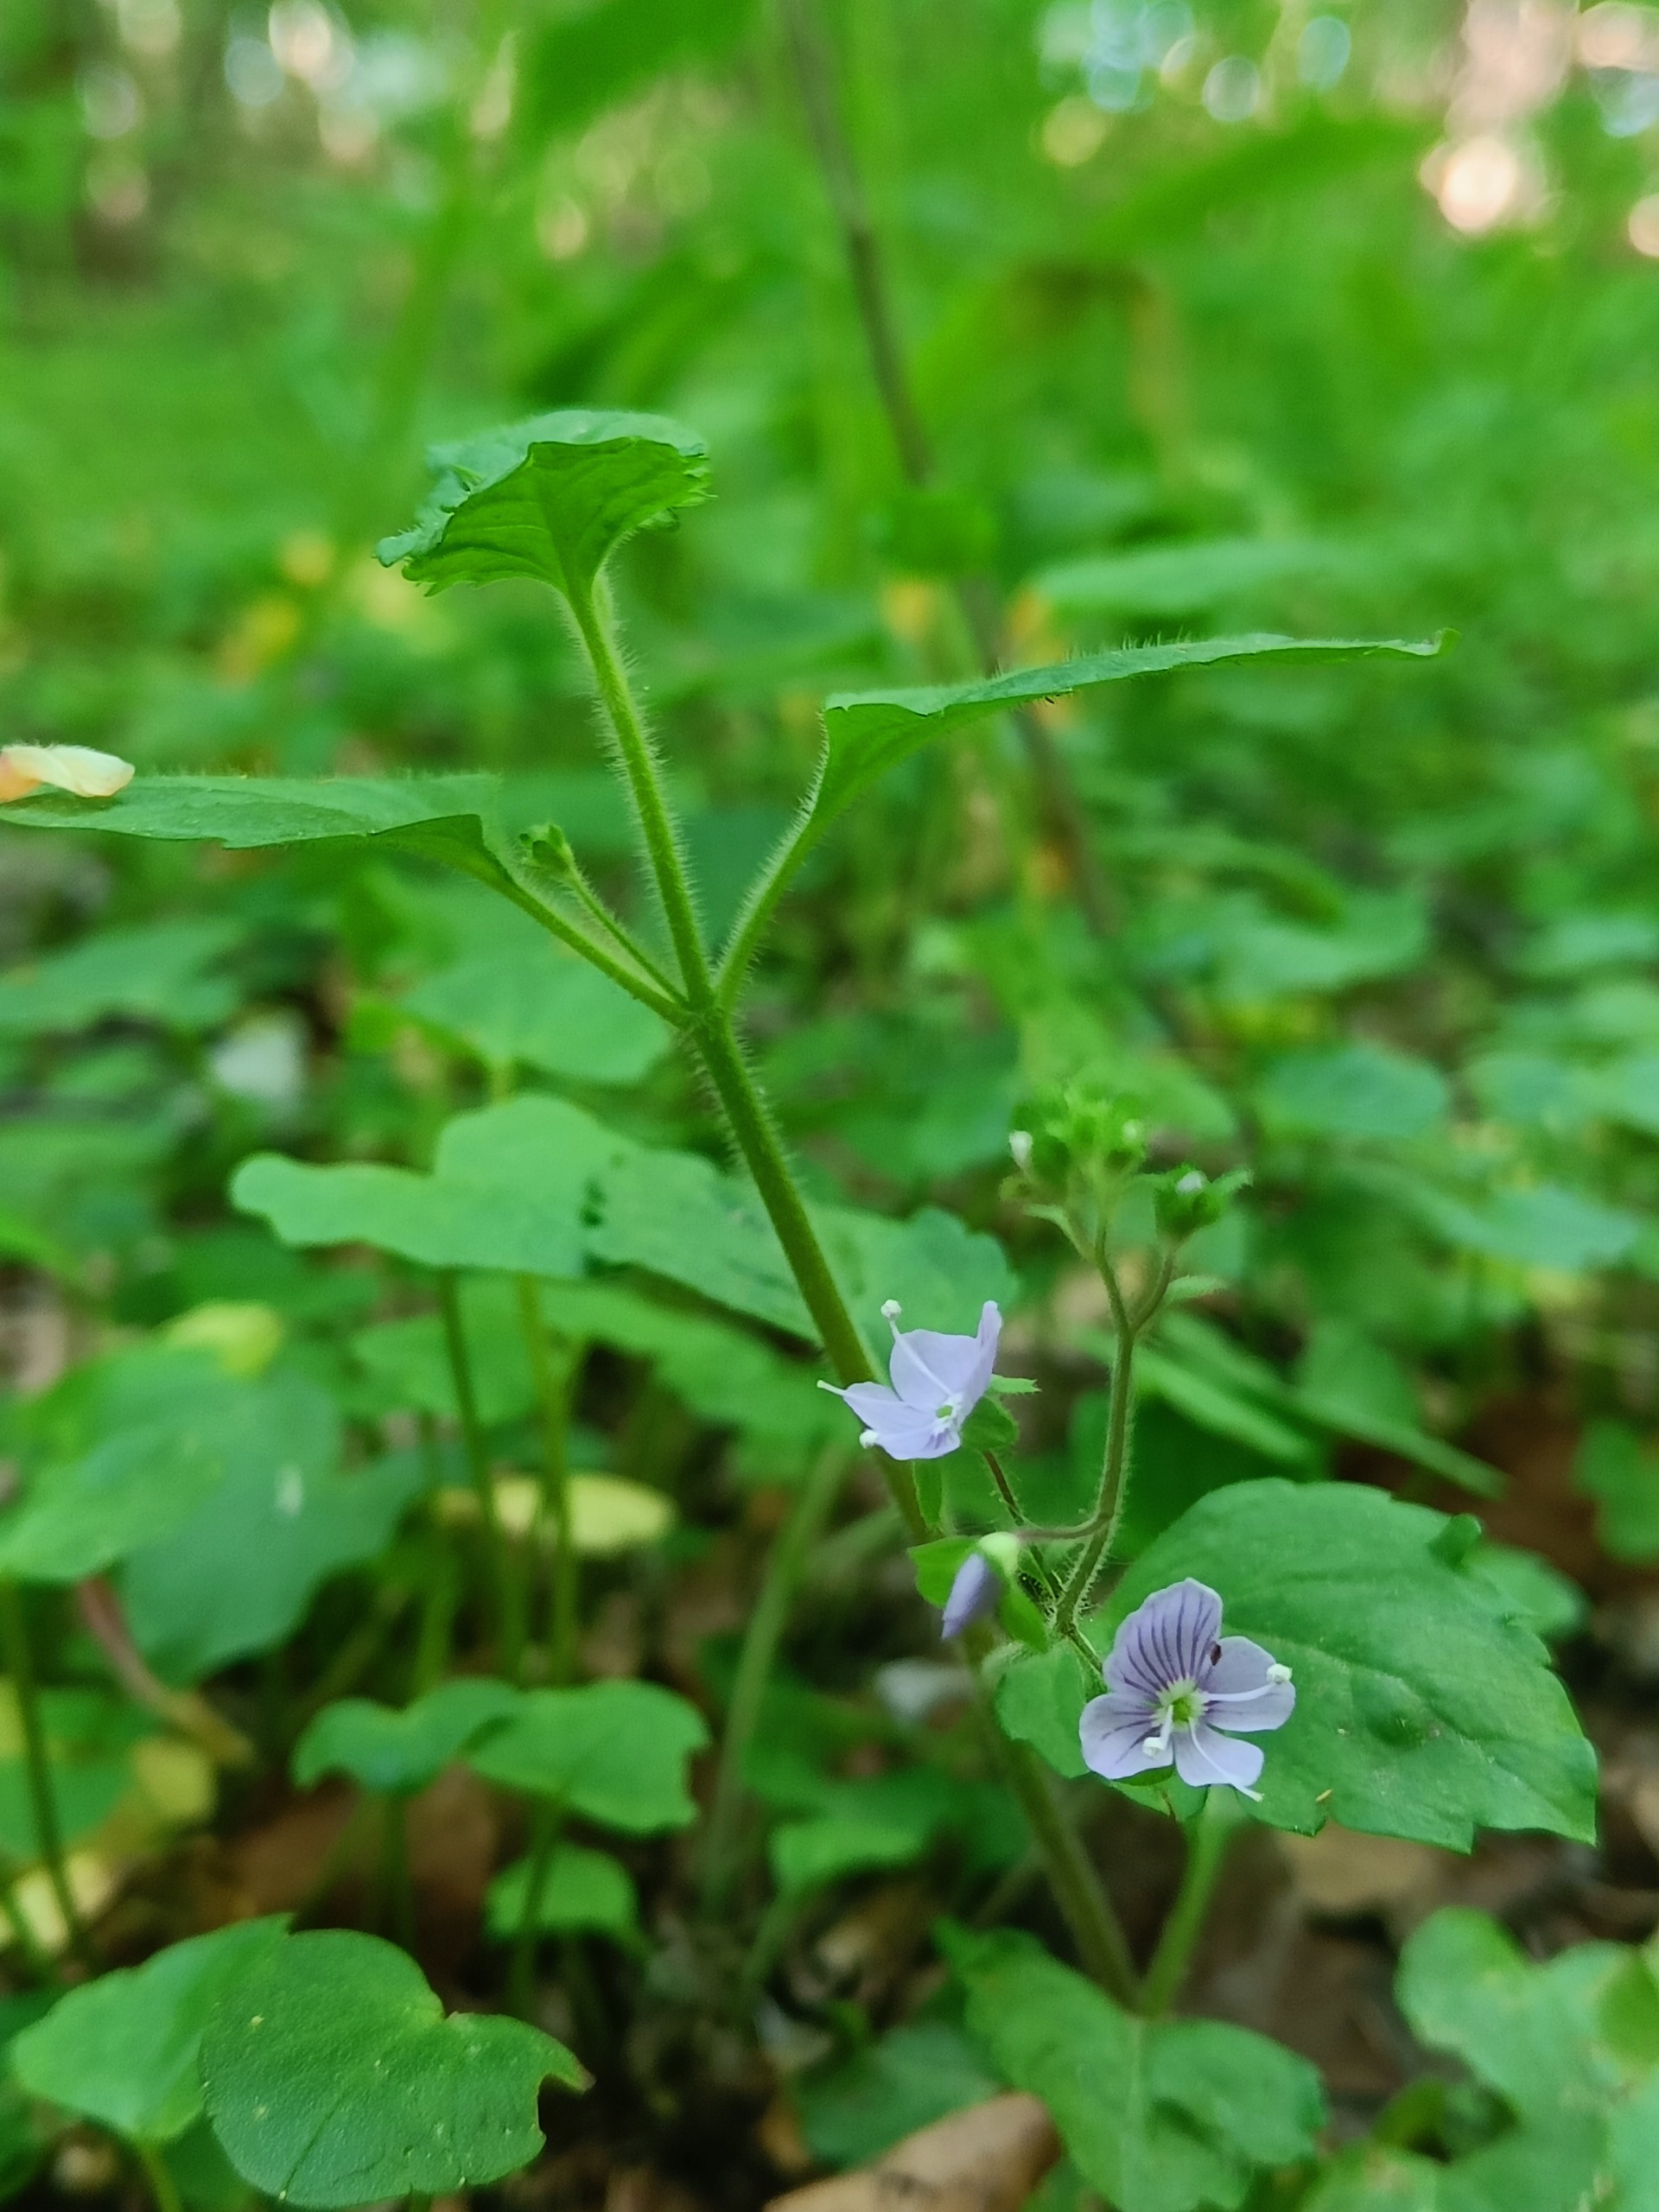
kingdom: Plantae
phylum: Tracheophyta
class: Magnoliopsida
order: Lamiales
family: Plantaginaceae
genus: Veronica
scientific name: Veronica montana
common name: Bjerg-ærenpris
